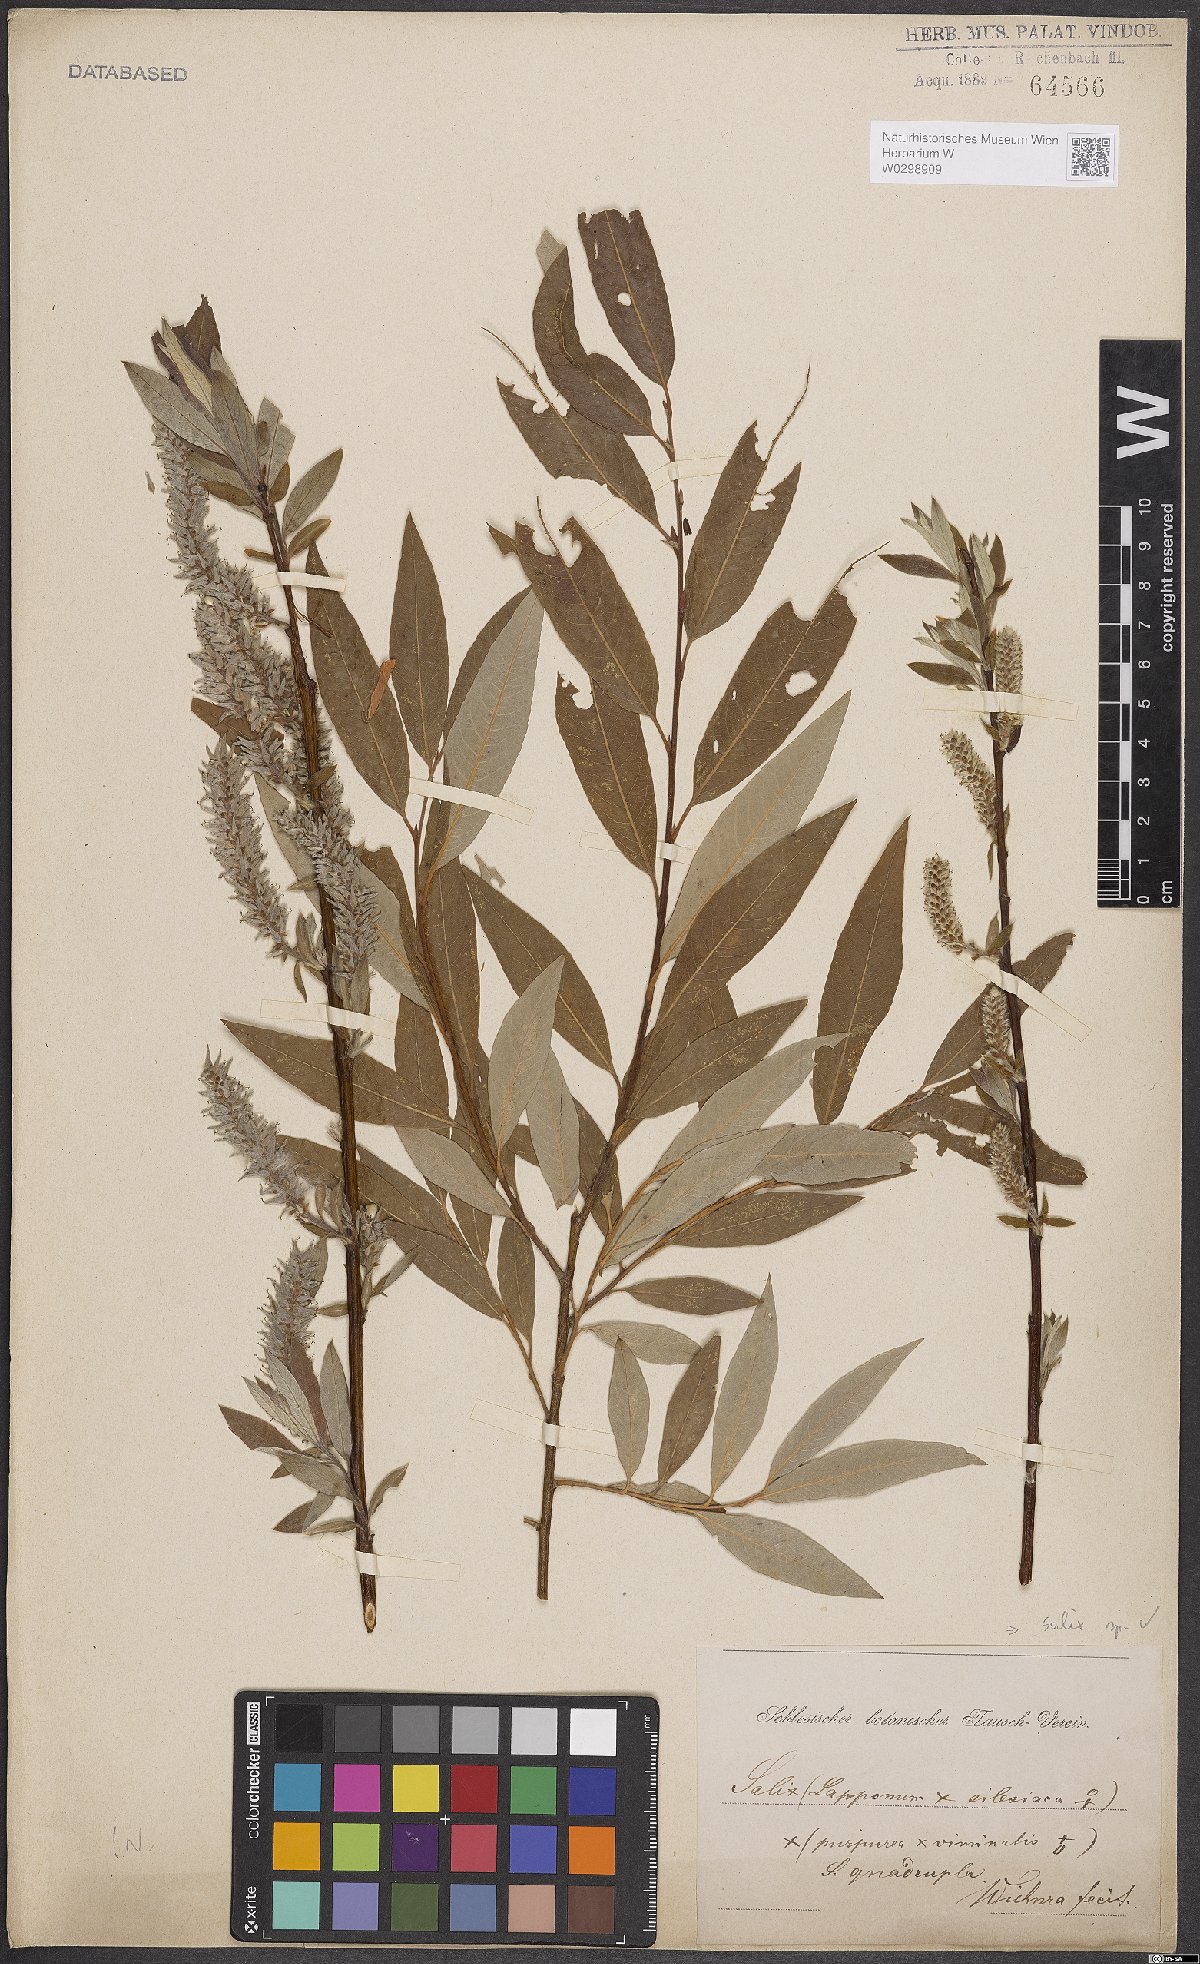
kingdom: Plantae
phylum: Tracheophyta
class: Magnoliopsida
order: Malpighiales
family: Salicaceae
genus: Salix
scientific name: Salix
